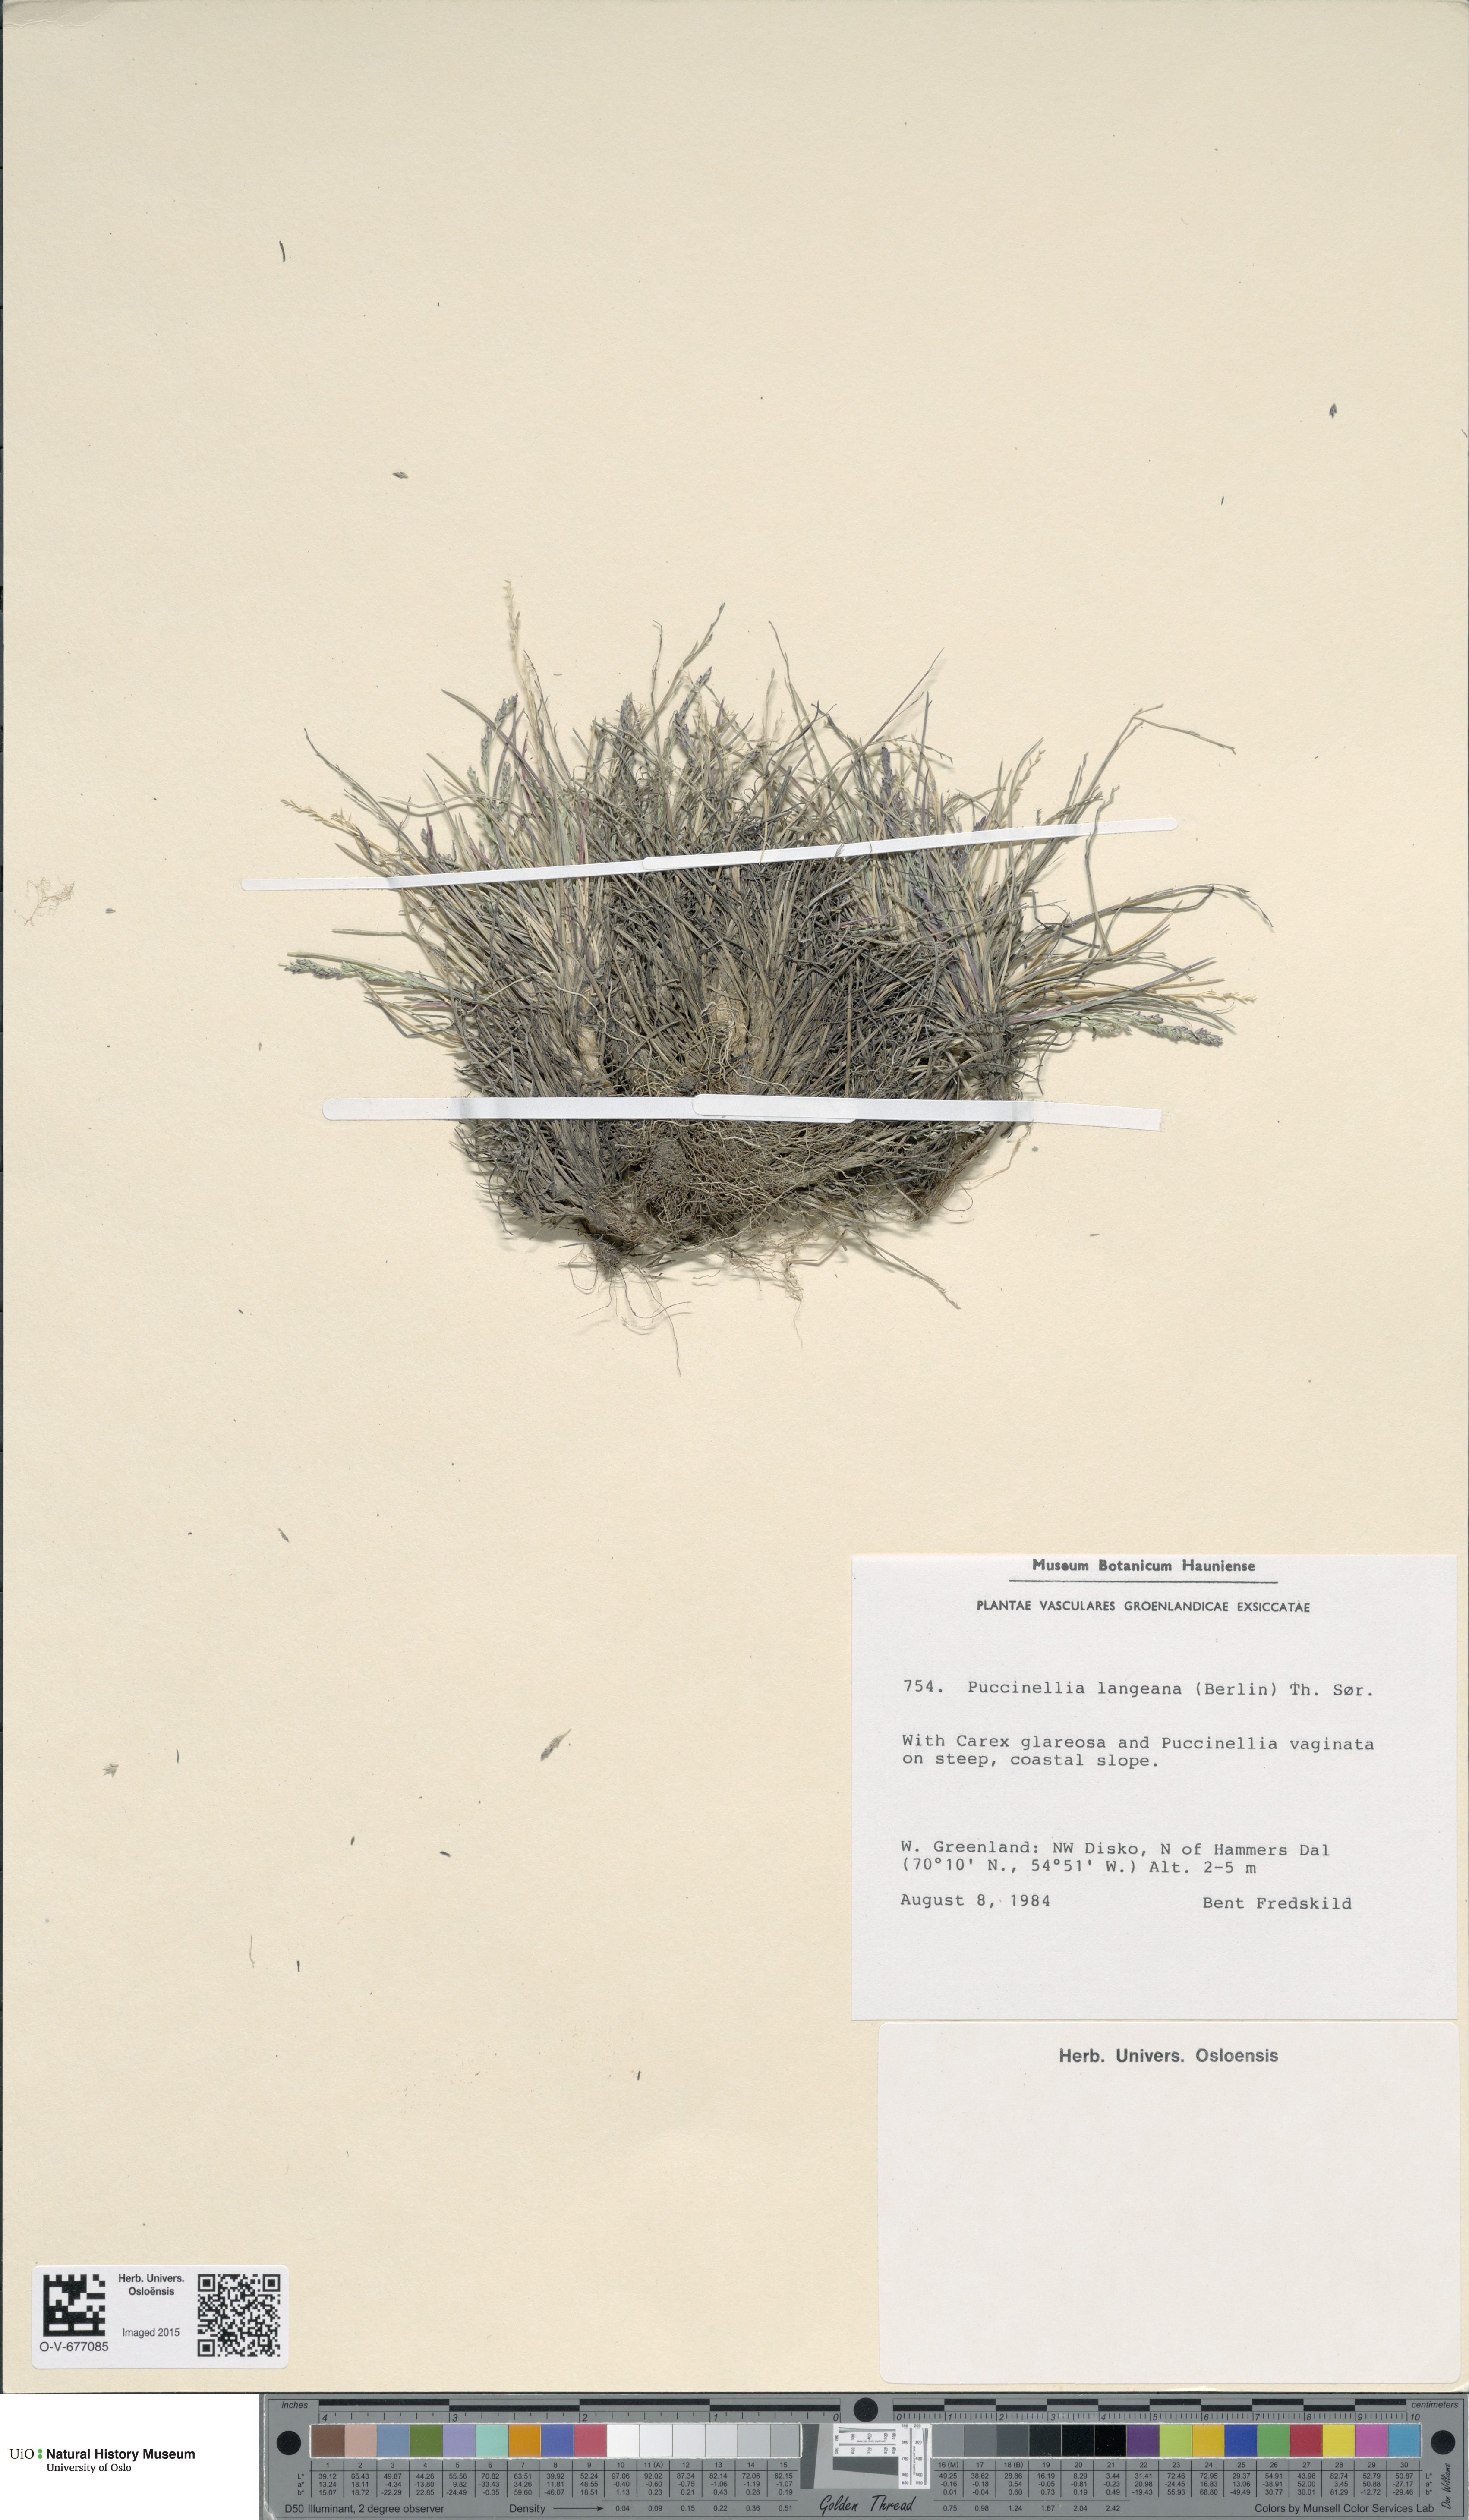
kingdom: Plantae
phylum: Tracheophyta
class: Liliopsida
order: Poales
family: Poaceae
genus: Puccinellia
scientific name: Puccinellia tenella
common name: Tundra alkaligrass
